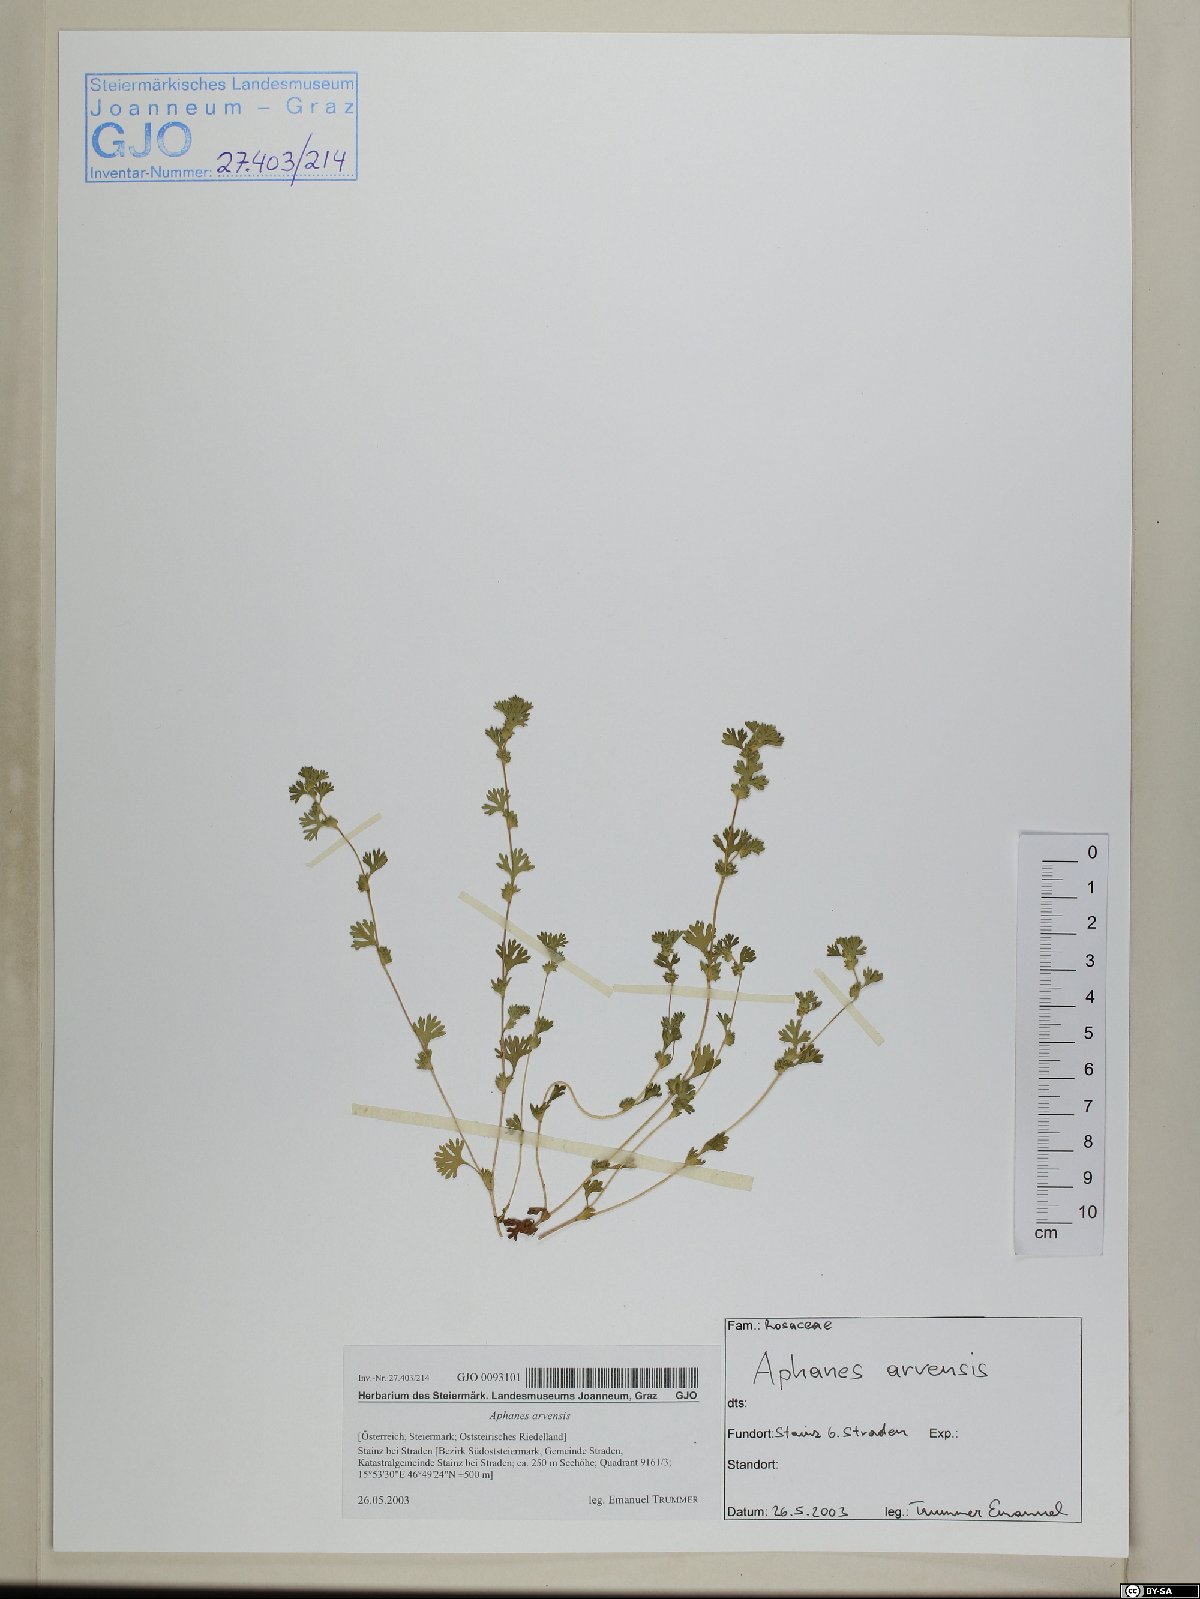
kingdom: Plantae
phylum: Tracheophyta
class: Magnoliopsida
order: Rosales
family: Rosaceae
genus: Aphanes
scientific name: Aphanes arvensis
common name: Parsley-piert
